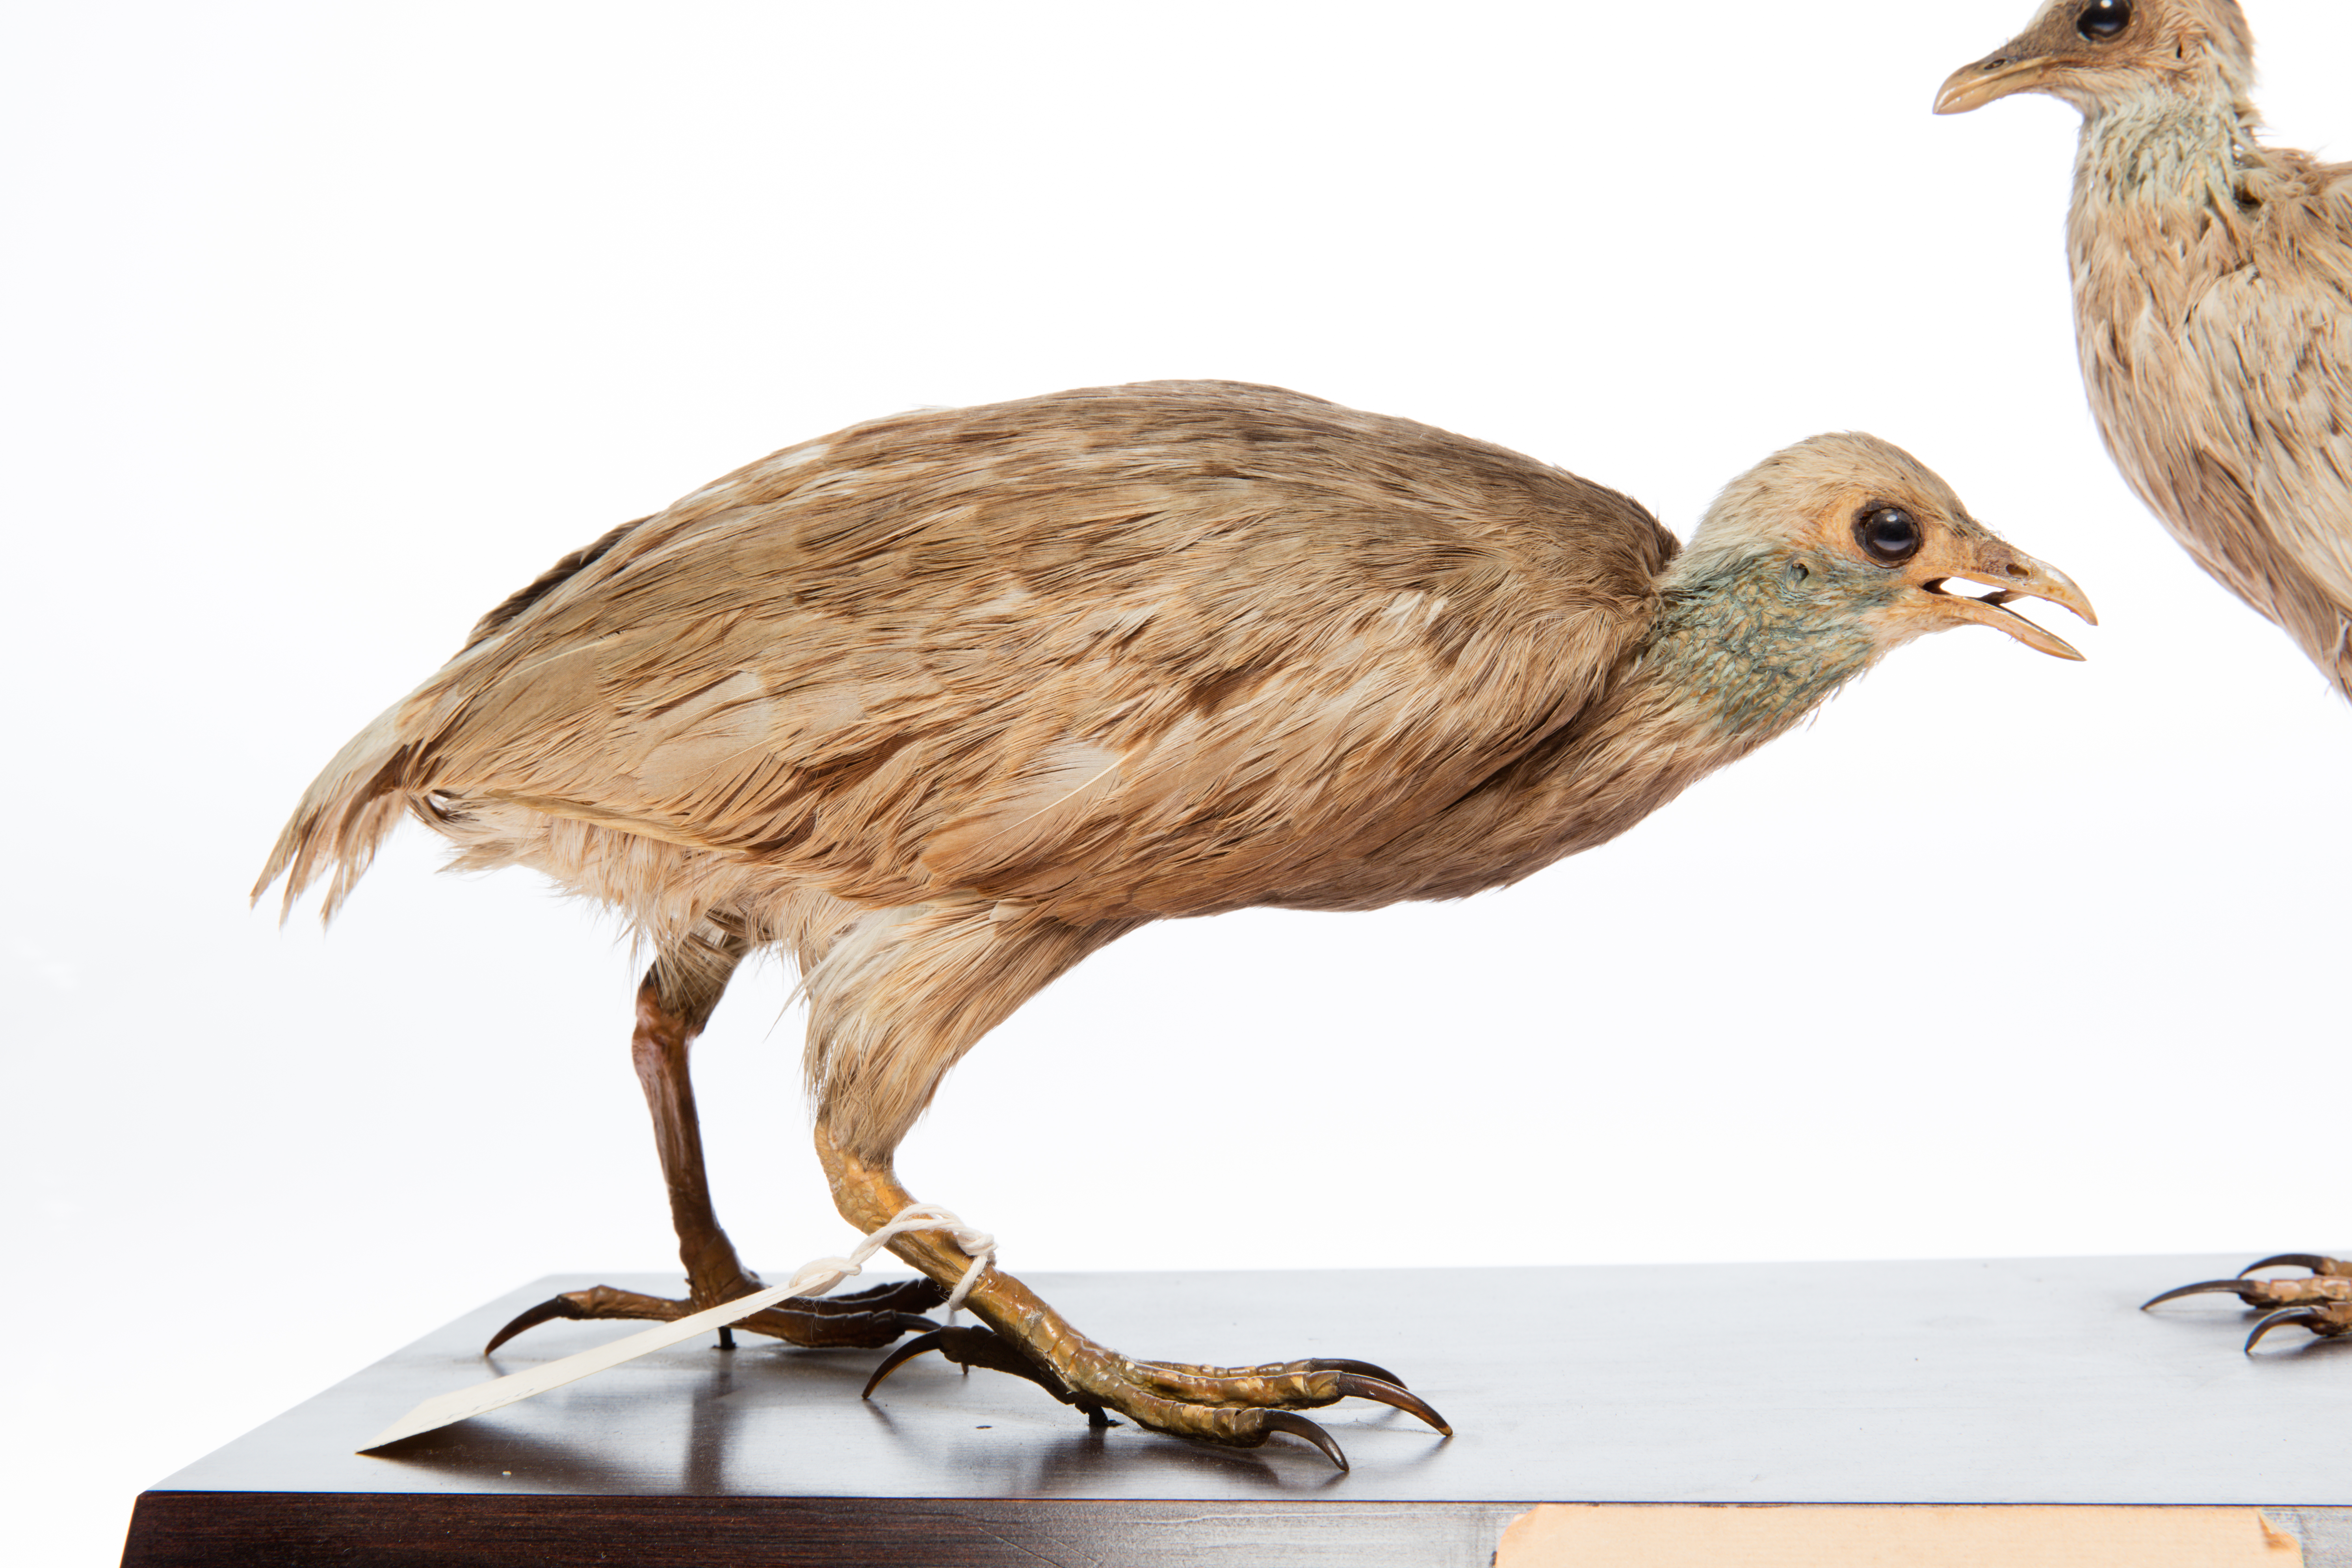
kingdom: Animalia
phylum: Chordata
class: Aves
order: Galliformes
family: Megapodiidae
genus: Megapodius
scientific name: Megapodius pritchardii
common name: Tongan megapode
